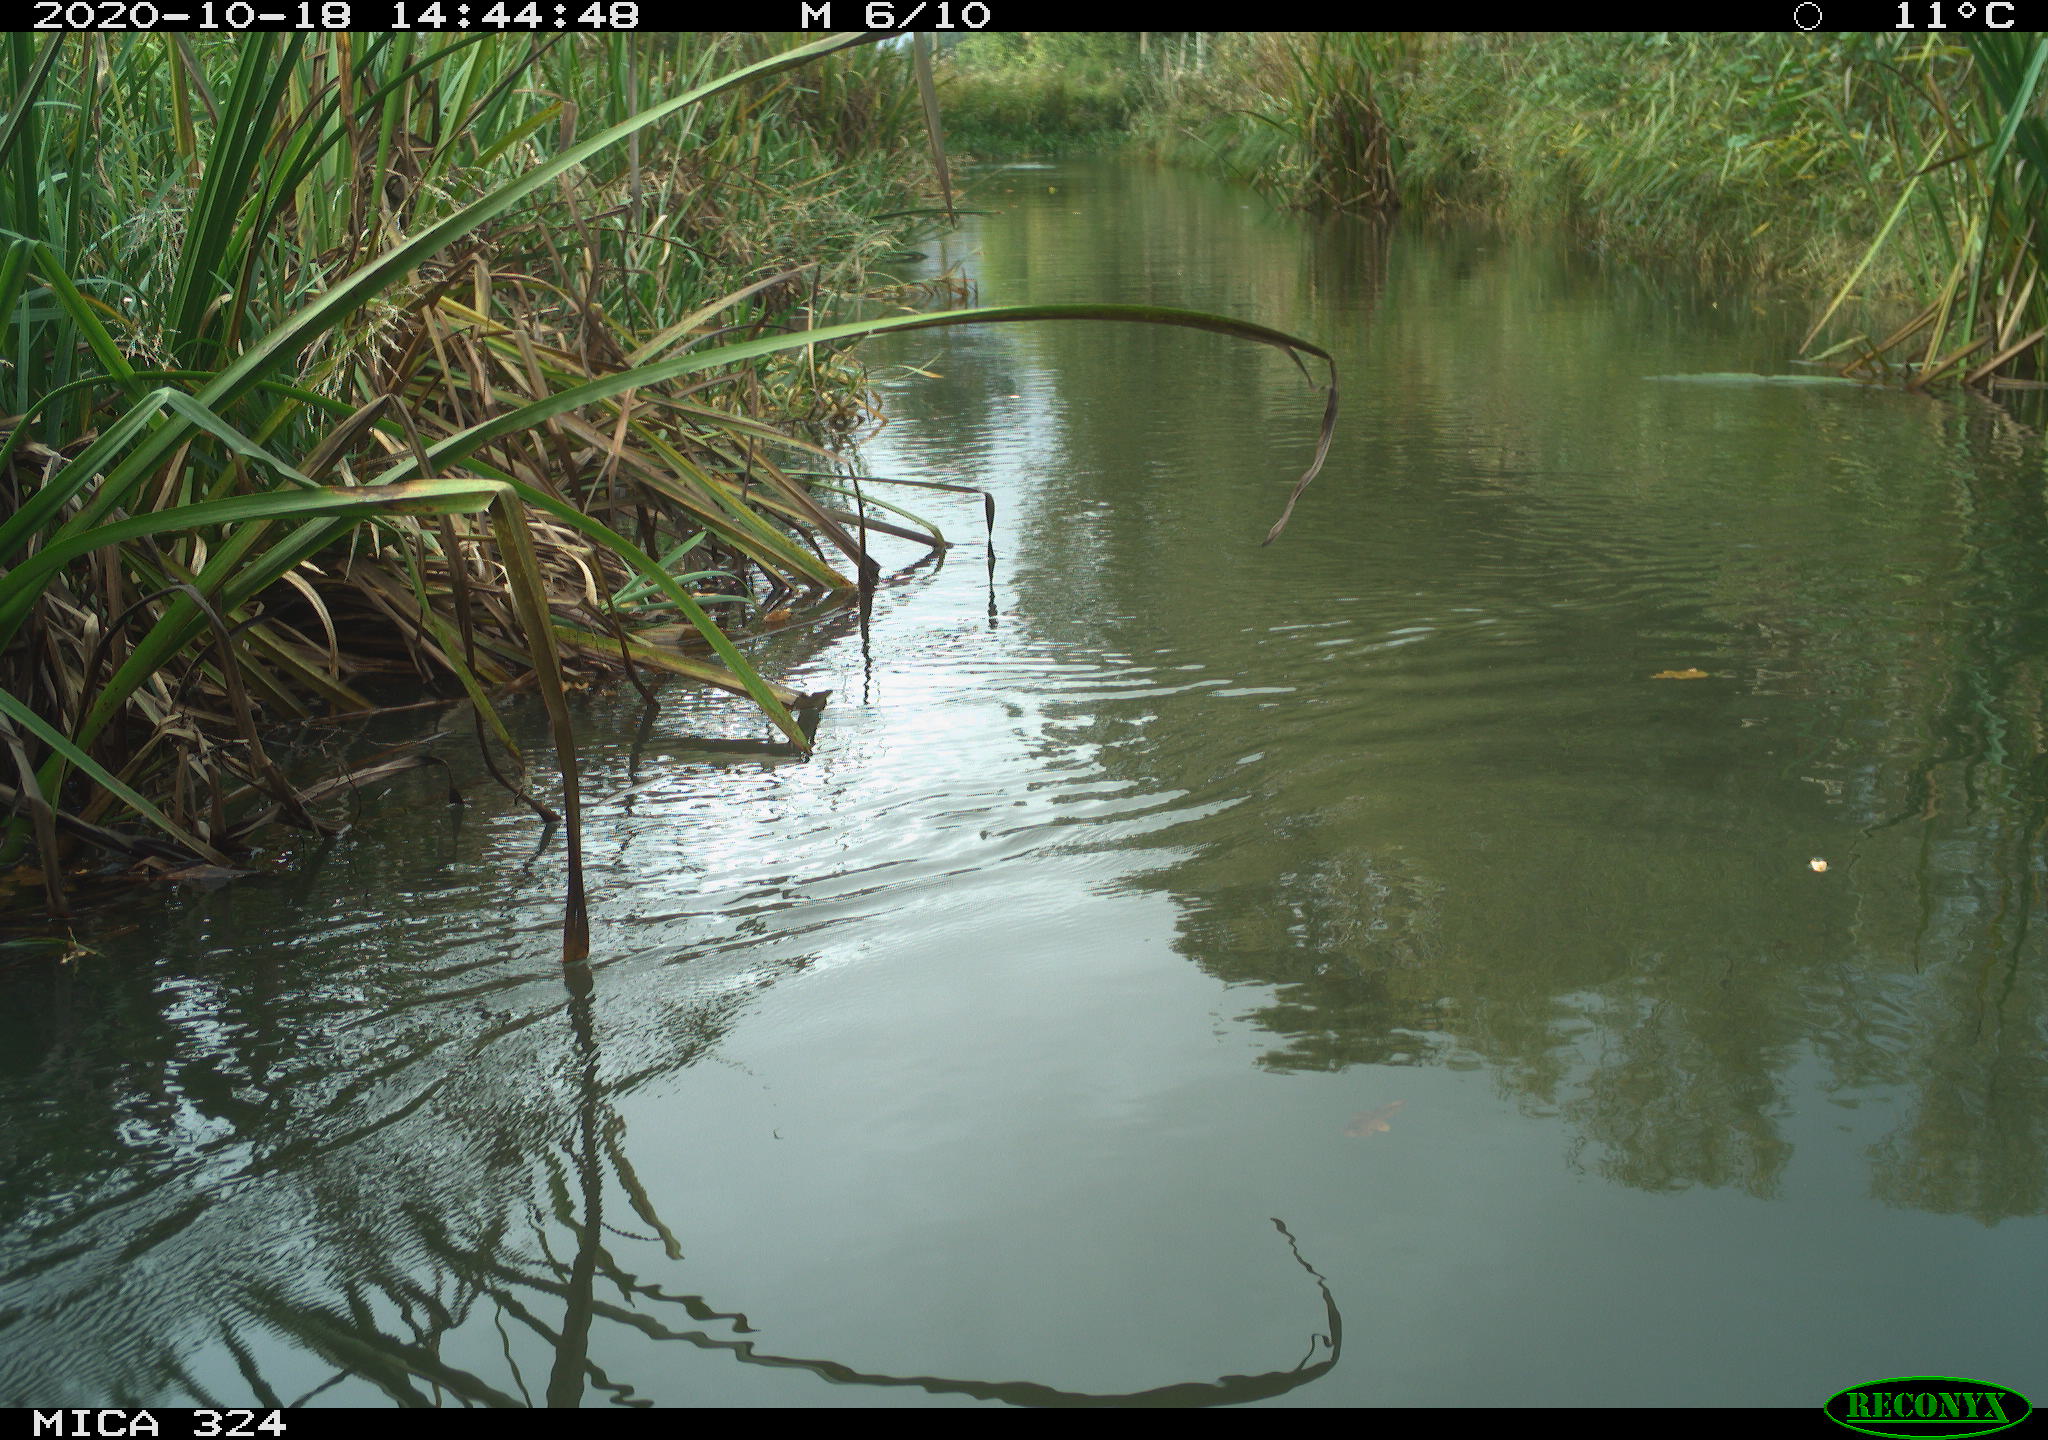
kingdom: Animalia
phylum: Chordata
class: Aves
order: Gruiformes
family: Rallidae
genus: Gallinula
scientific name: Gallinula chloropus
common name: Common moorhen
